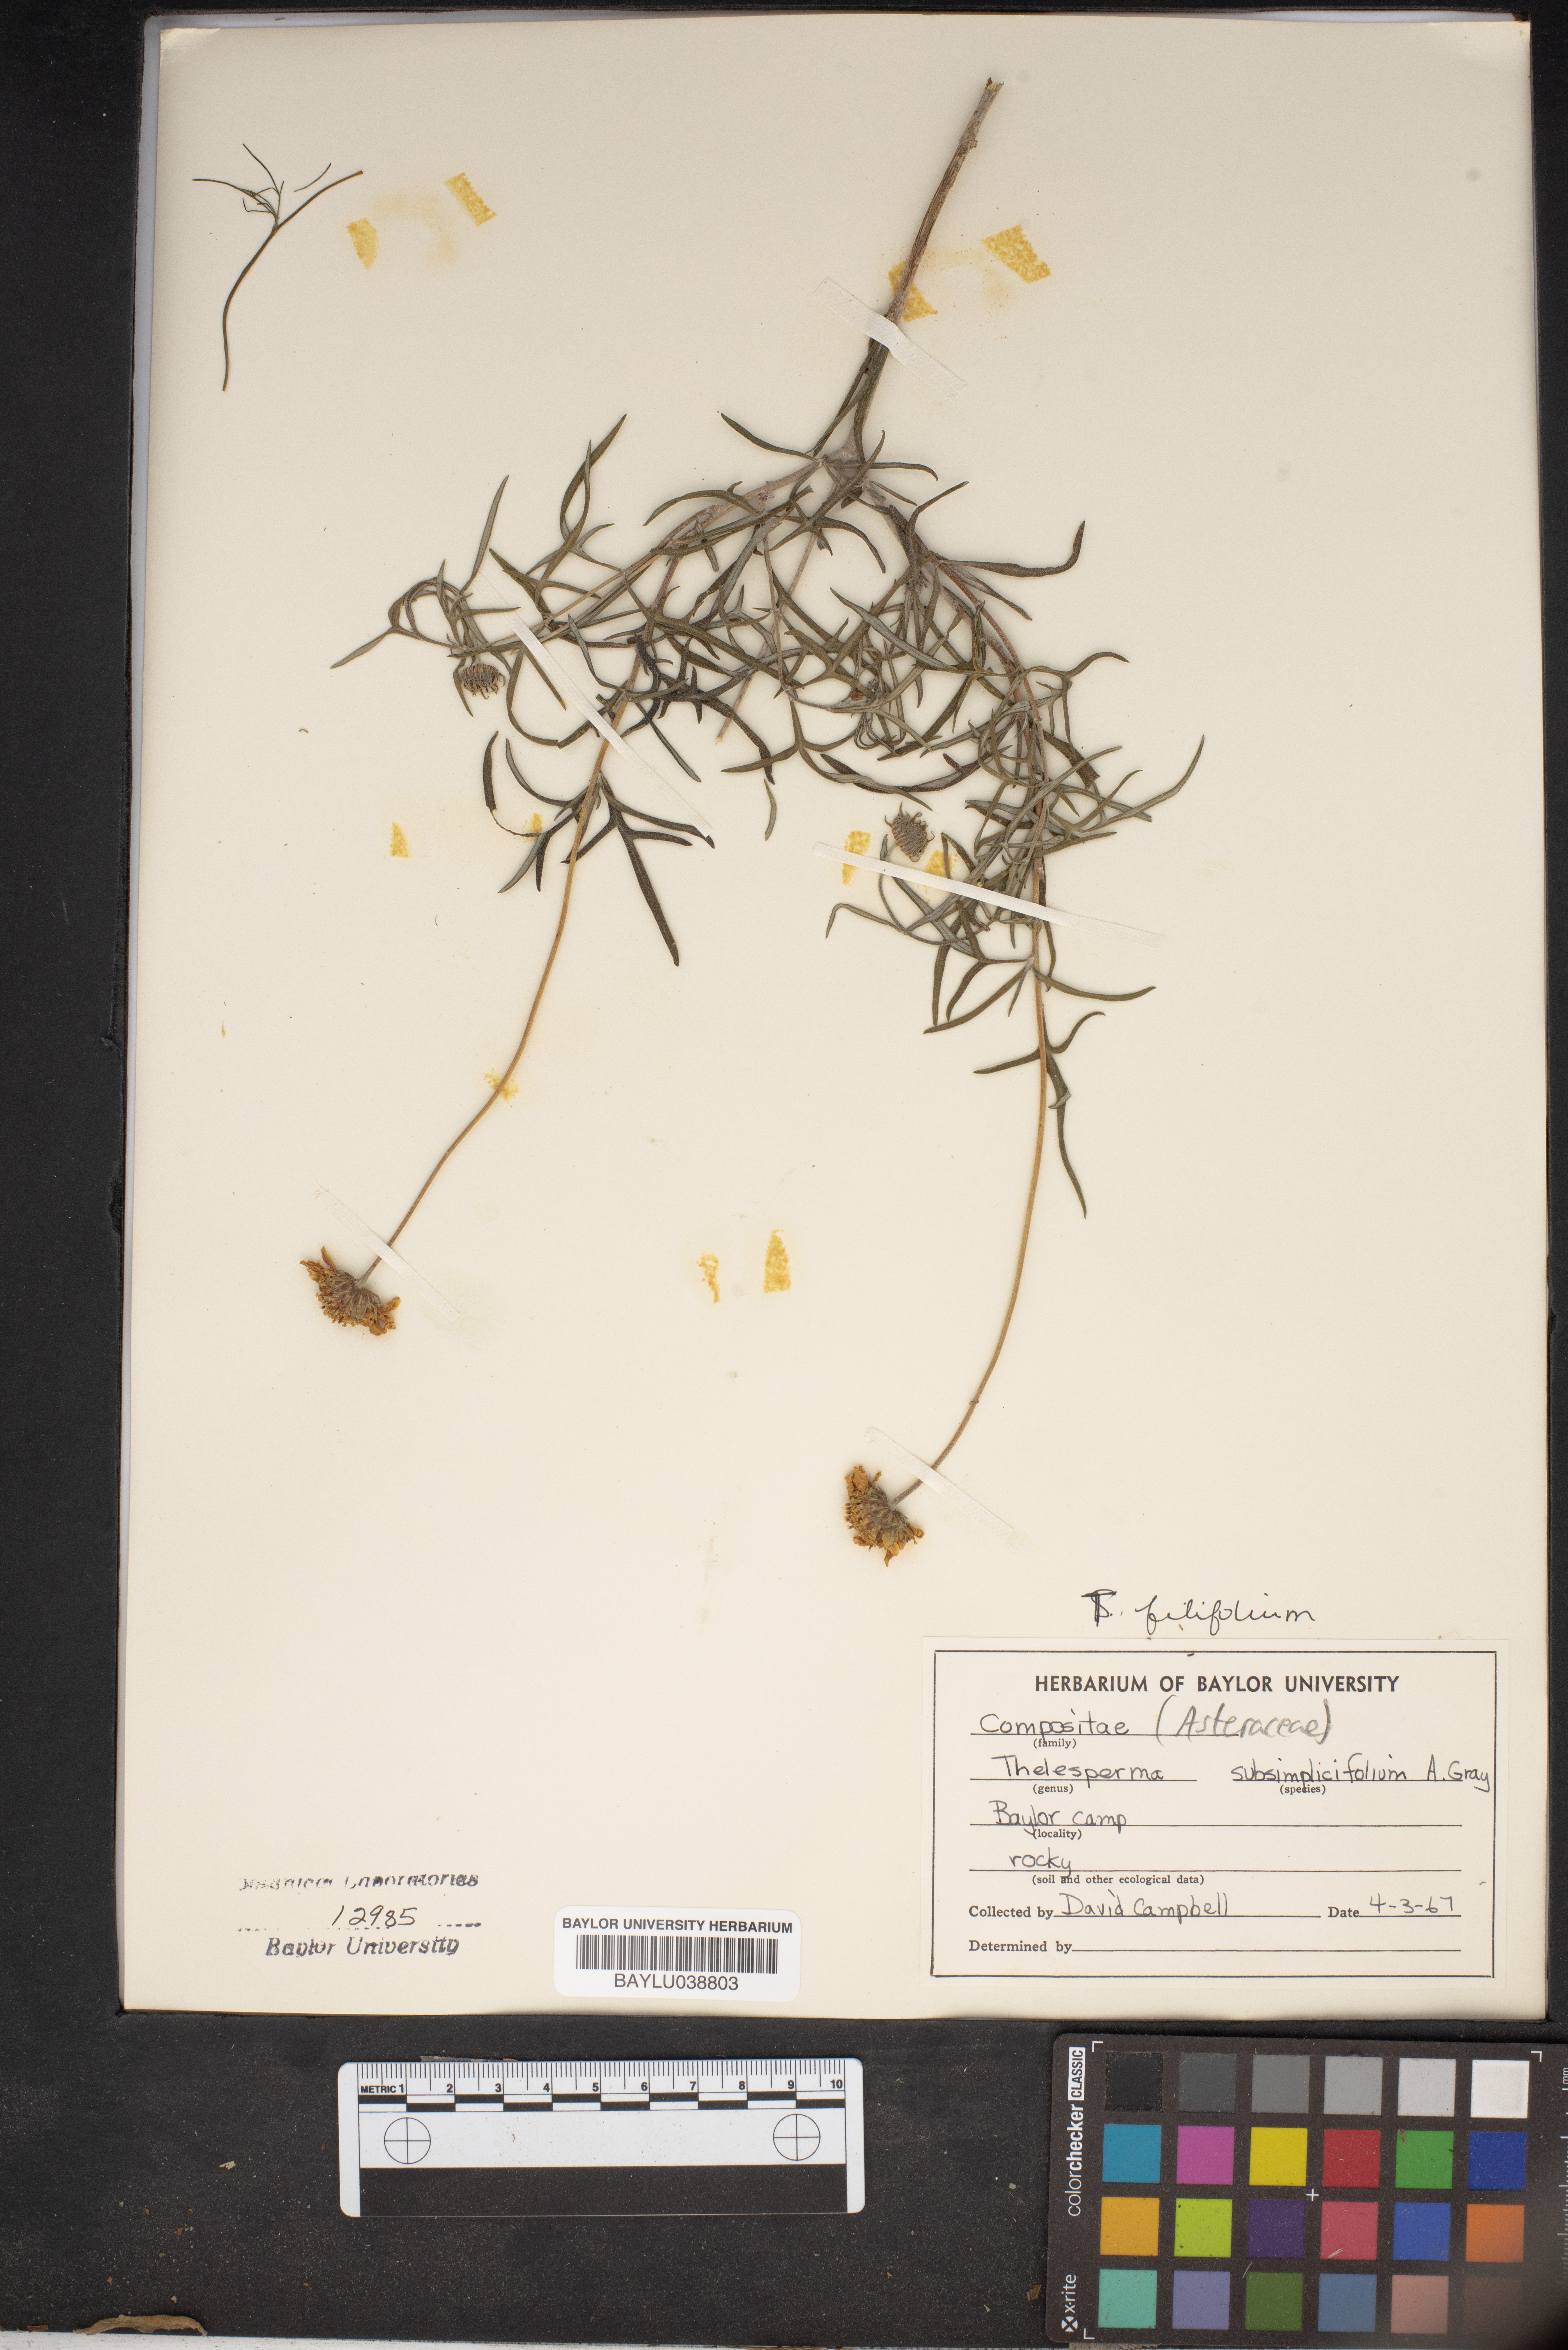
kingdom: Plantae
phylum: Tracheophyta
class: Magnoliopsida
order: Asterales
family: Asteraceae
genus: Thelesperma
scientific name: Thelesperma subsimplicifolium
